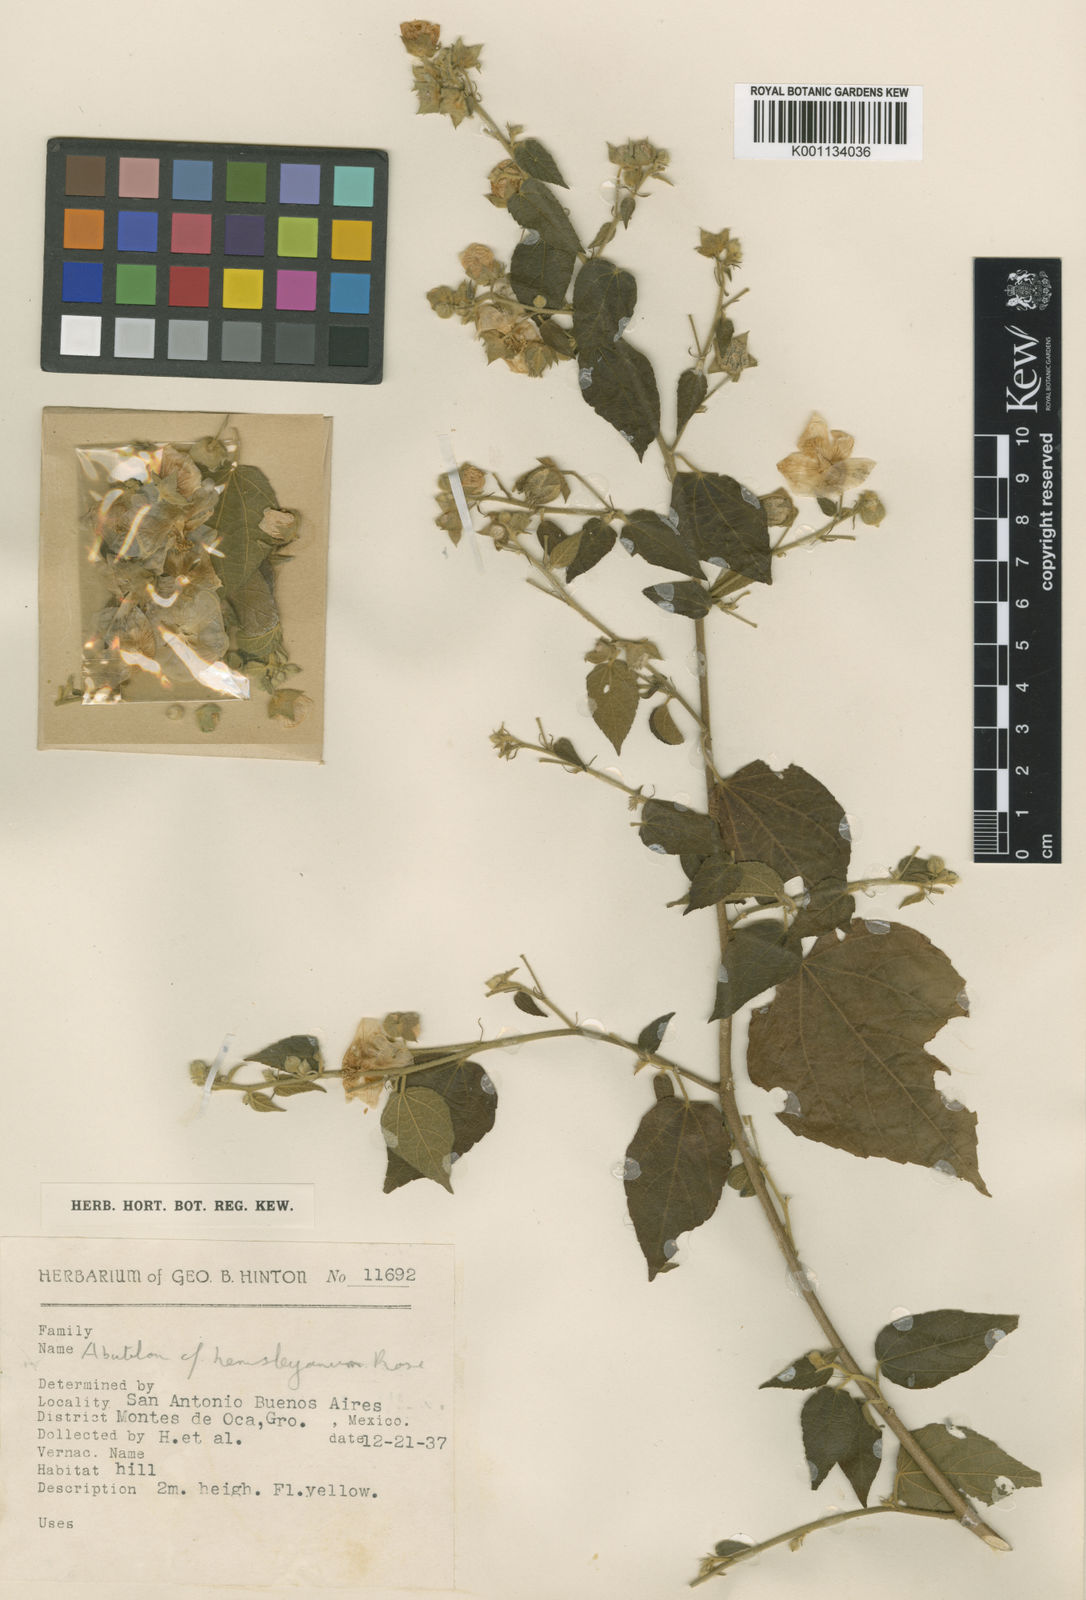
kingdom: Plantae
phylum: Tracheophyta
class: Magnoliopsida
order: Malvales
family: Malvaceae
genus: Pseudabutilon
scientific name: Pseudabutilon ellipticum
